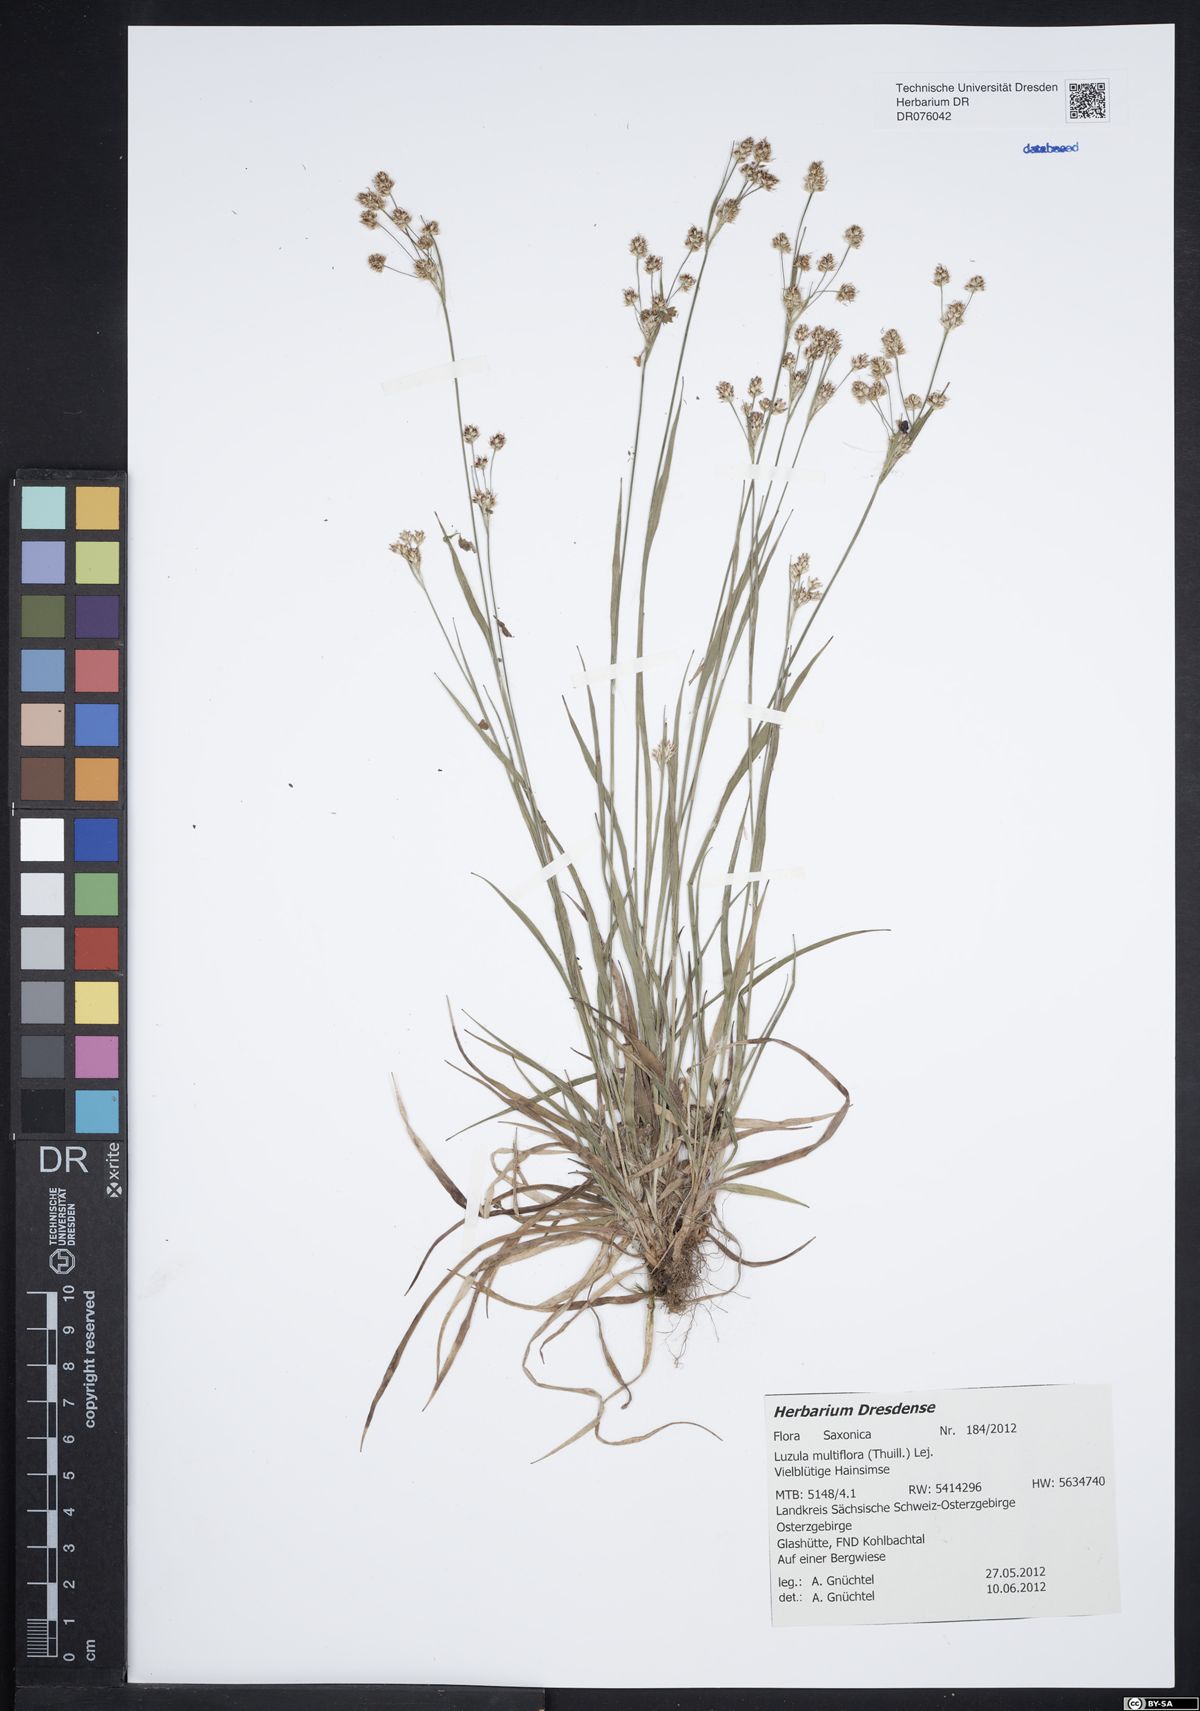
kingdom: Plantae
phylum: Tracheophyta
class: Liliopsida
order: Poales
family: Juncaceae
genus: Luzula
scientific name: Luzula multiflora
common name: Heath wood-rush
